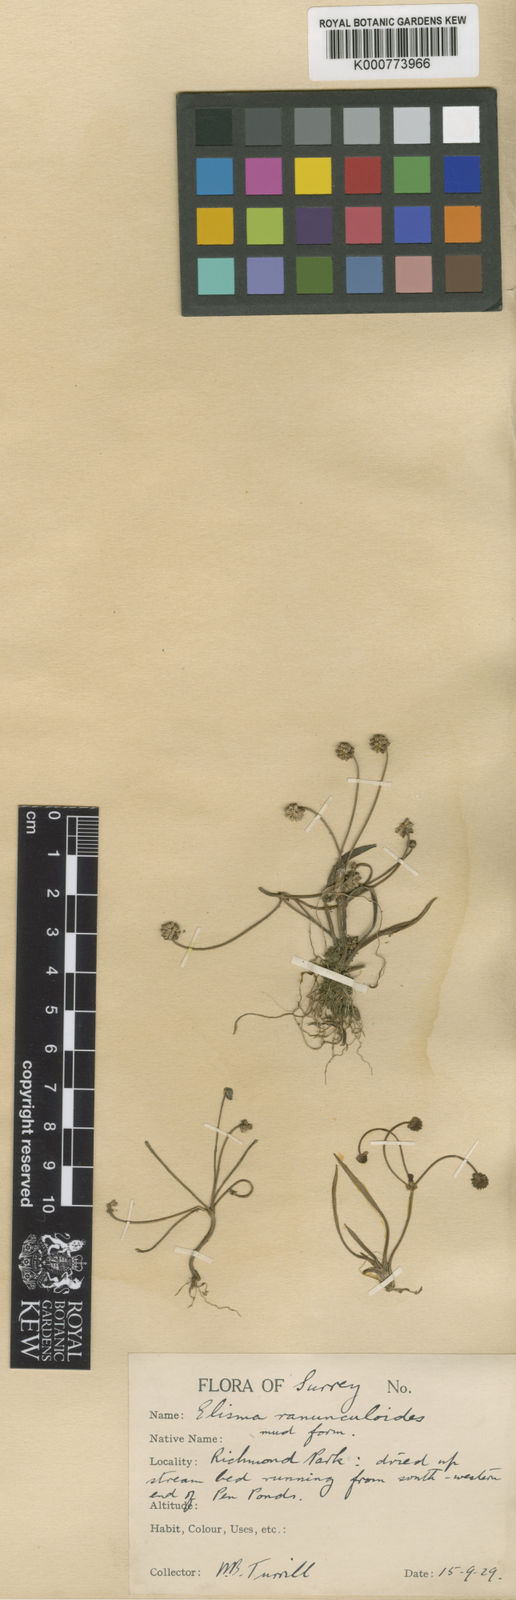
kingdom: Plantae
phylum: Tracheophyta
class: Liliopsida
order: Alismatales
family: Alismataceae
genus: Baldellia
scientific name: Baldellia ranunculoides
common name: Lesser water-plantain
